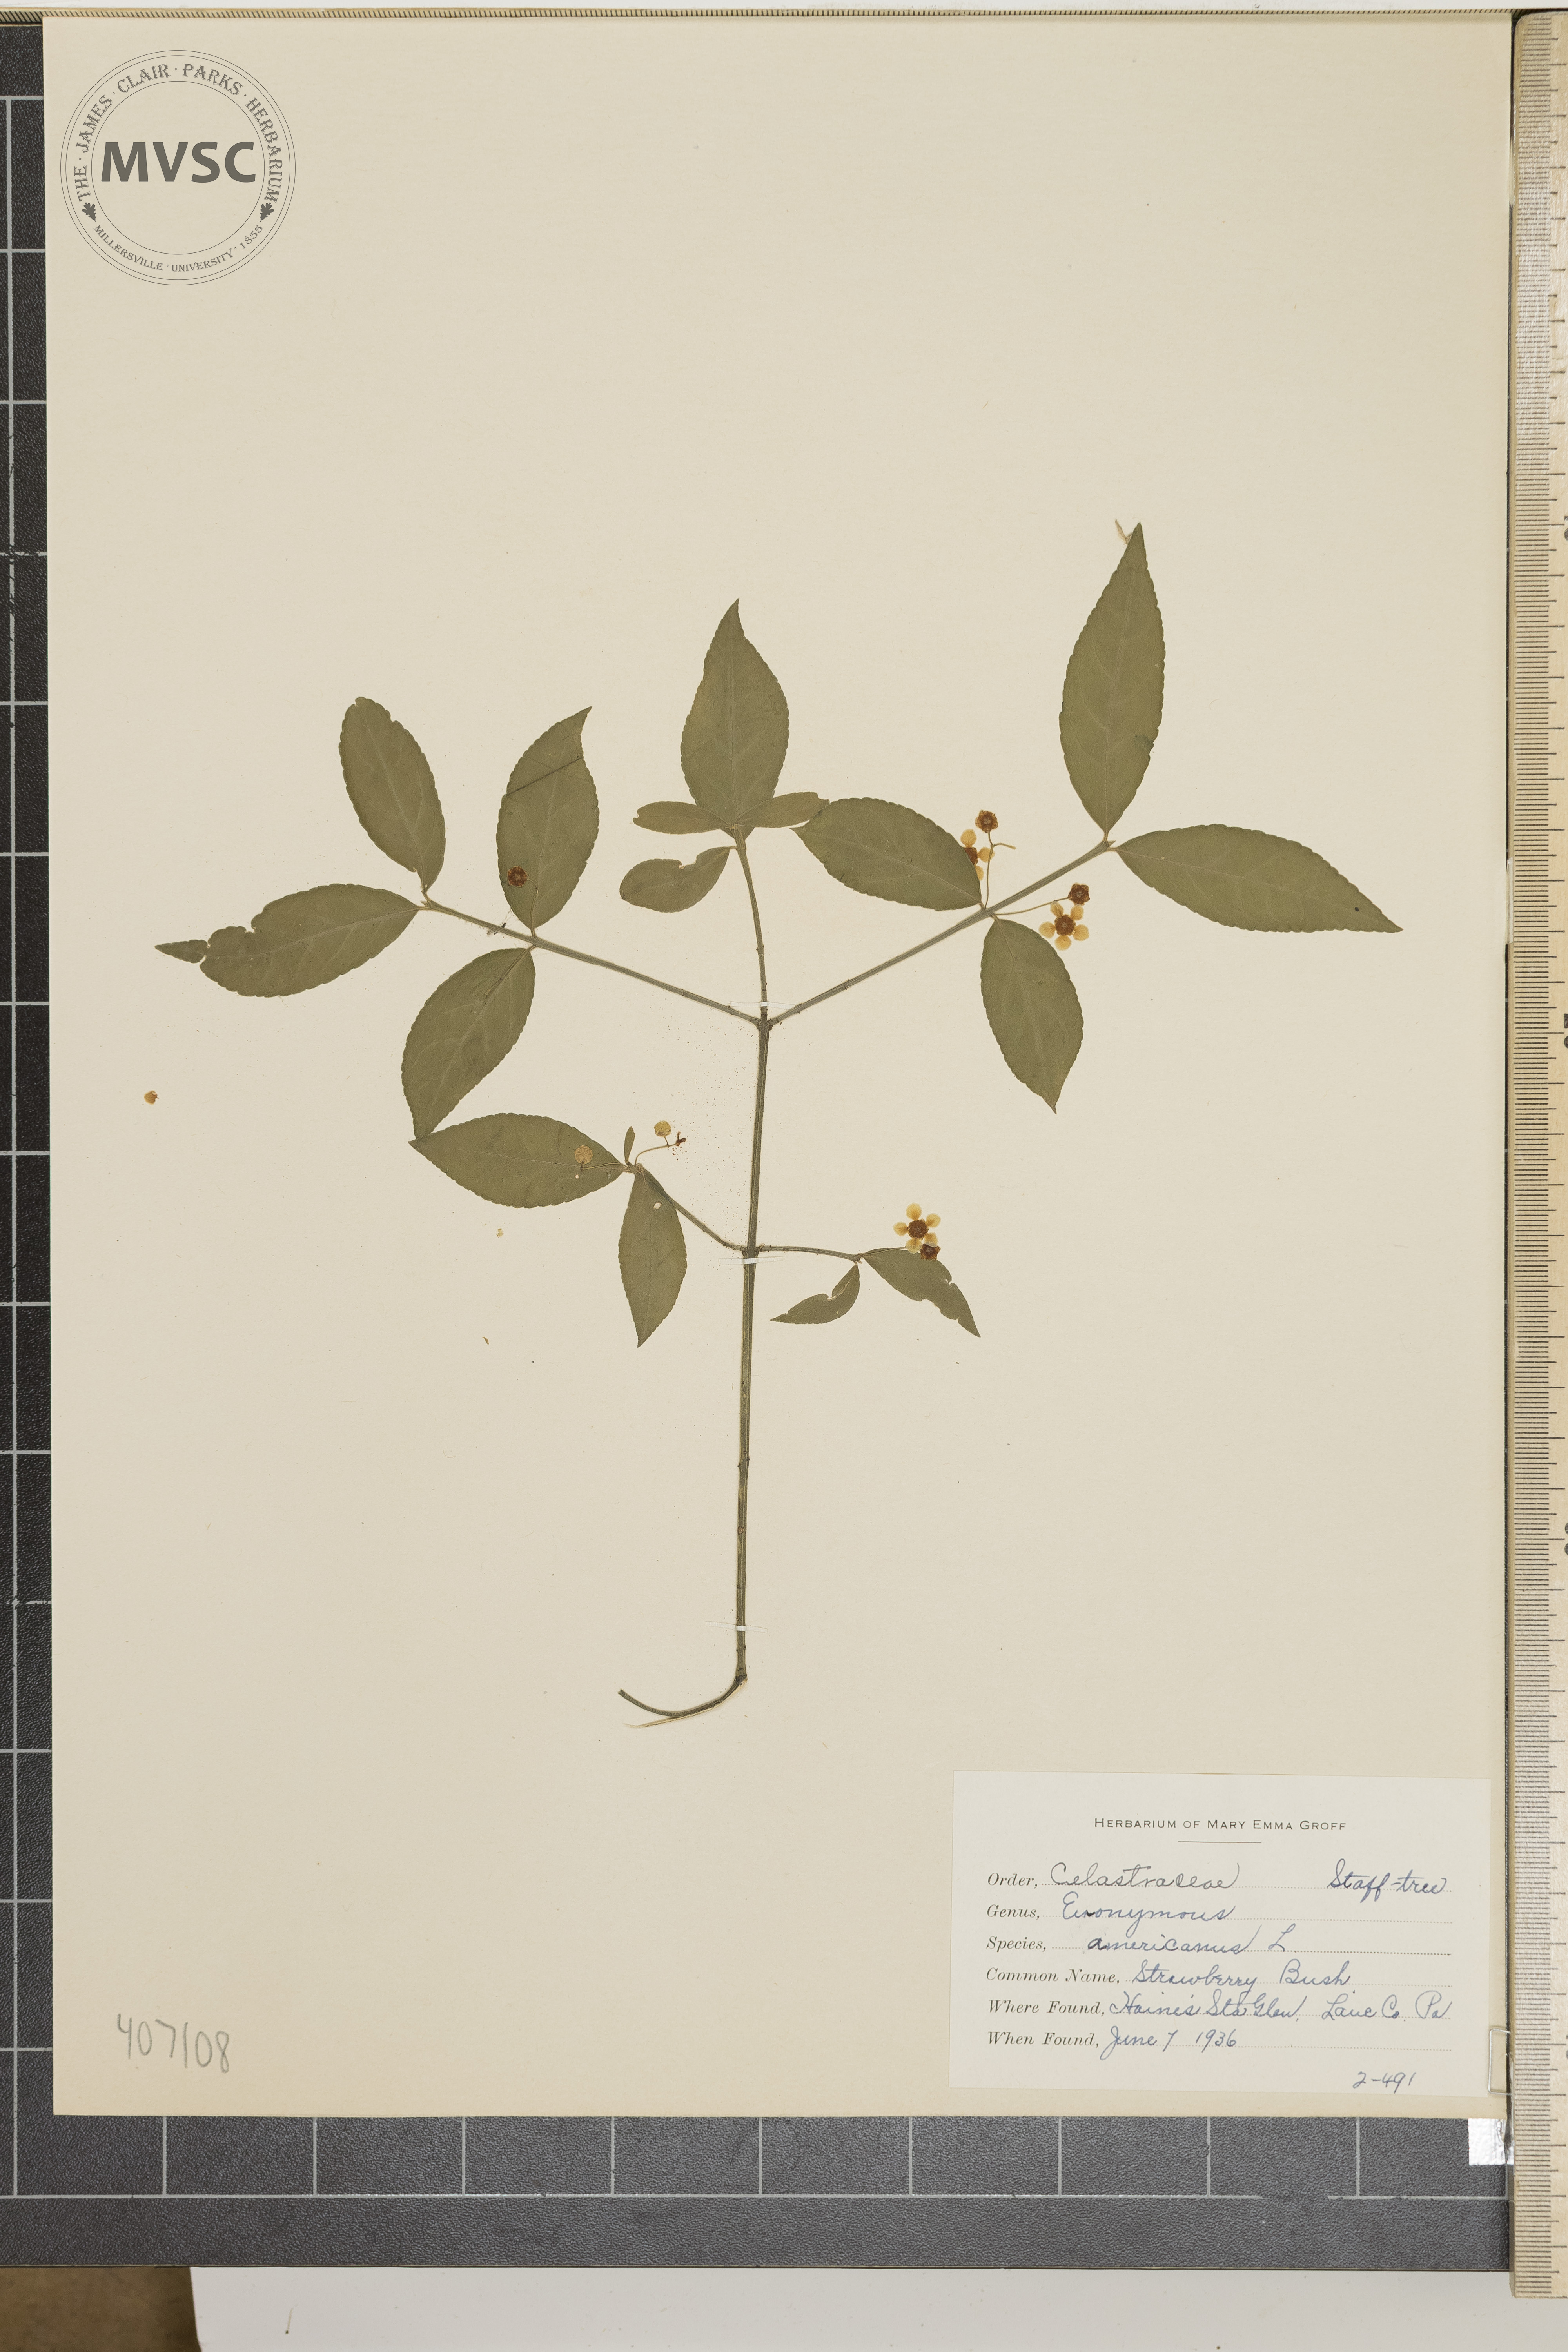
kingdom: Plantae
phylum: Tracheophyta
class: Magnoliopsida
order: Celastrales
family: Celastraceae
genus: Euonymus
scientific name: Euonymus americanus
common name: Strawberry Bush
